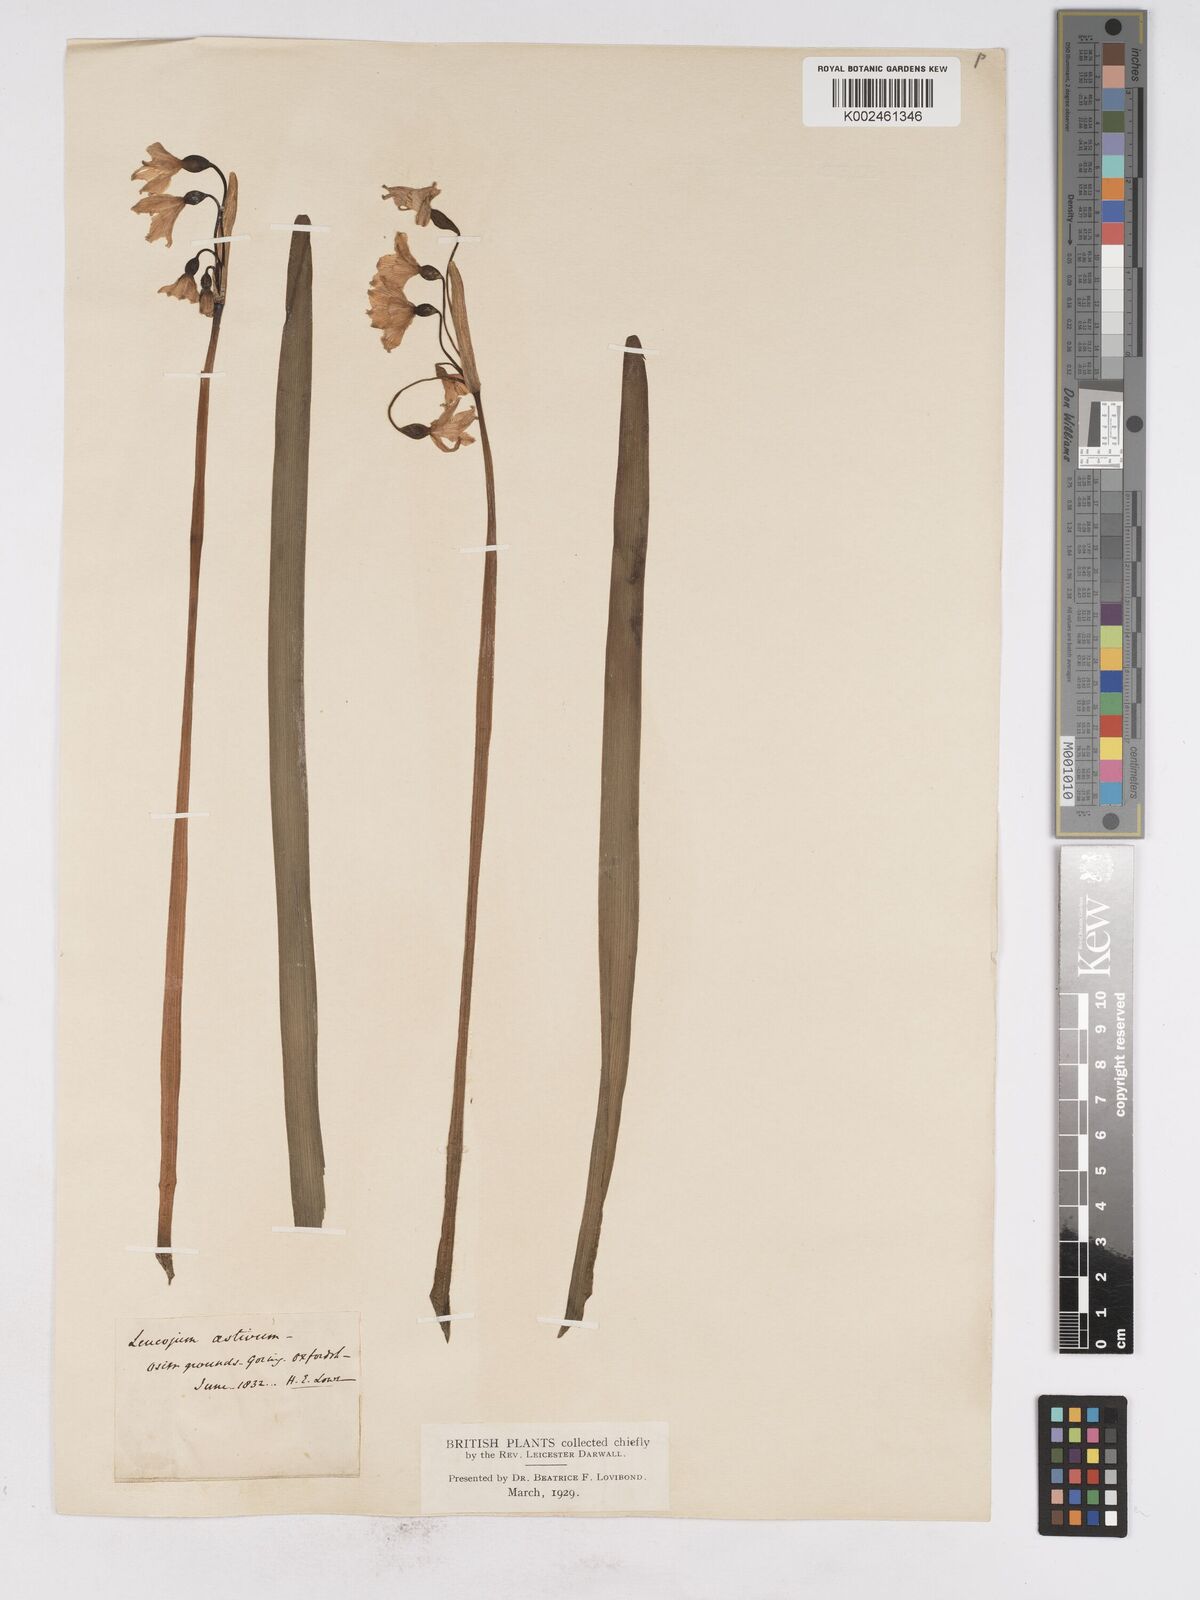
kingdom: Plantae
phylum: Tracheophyta
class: Liliopsida
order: Asparagales
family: Amaryllidaceae
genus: Leucojum
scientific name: Leucojum aestivum
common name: Summer snowflake
